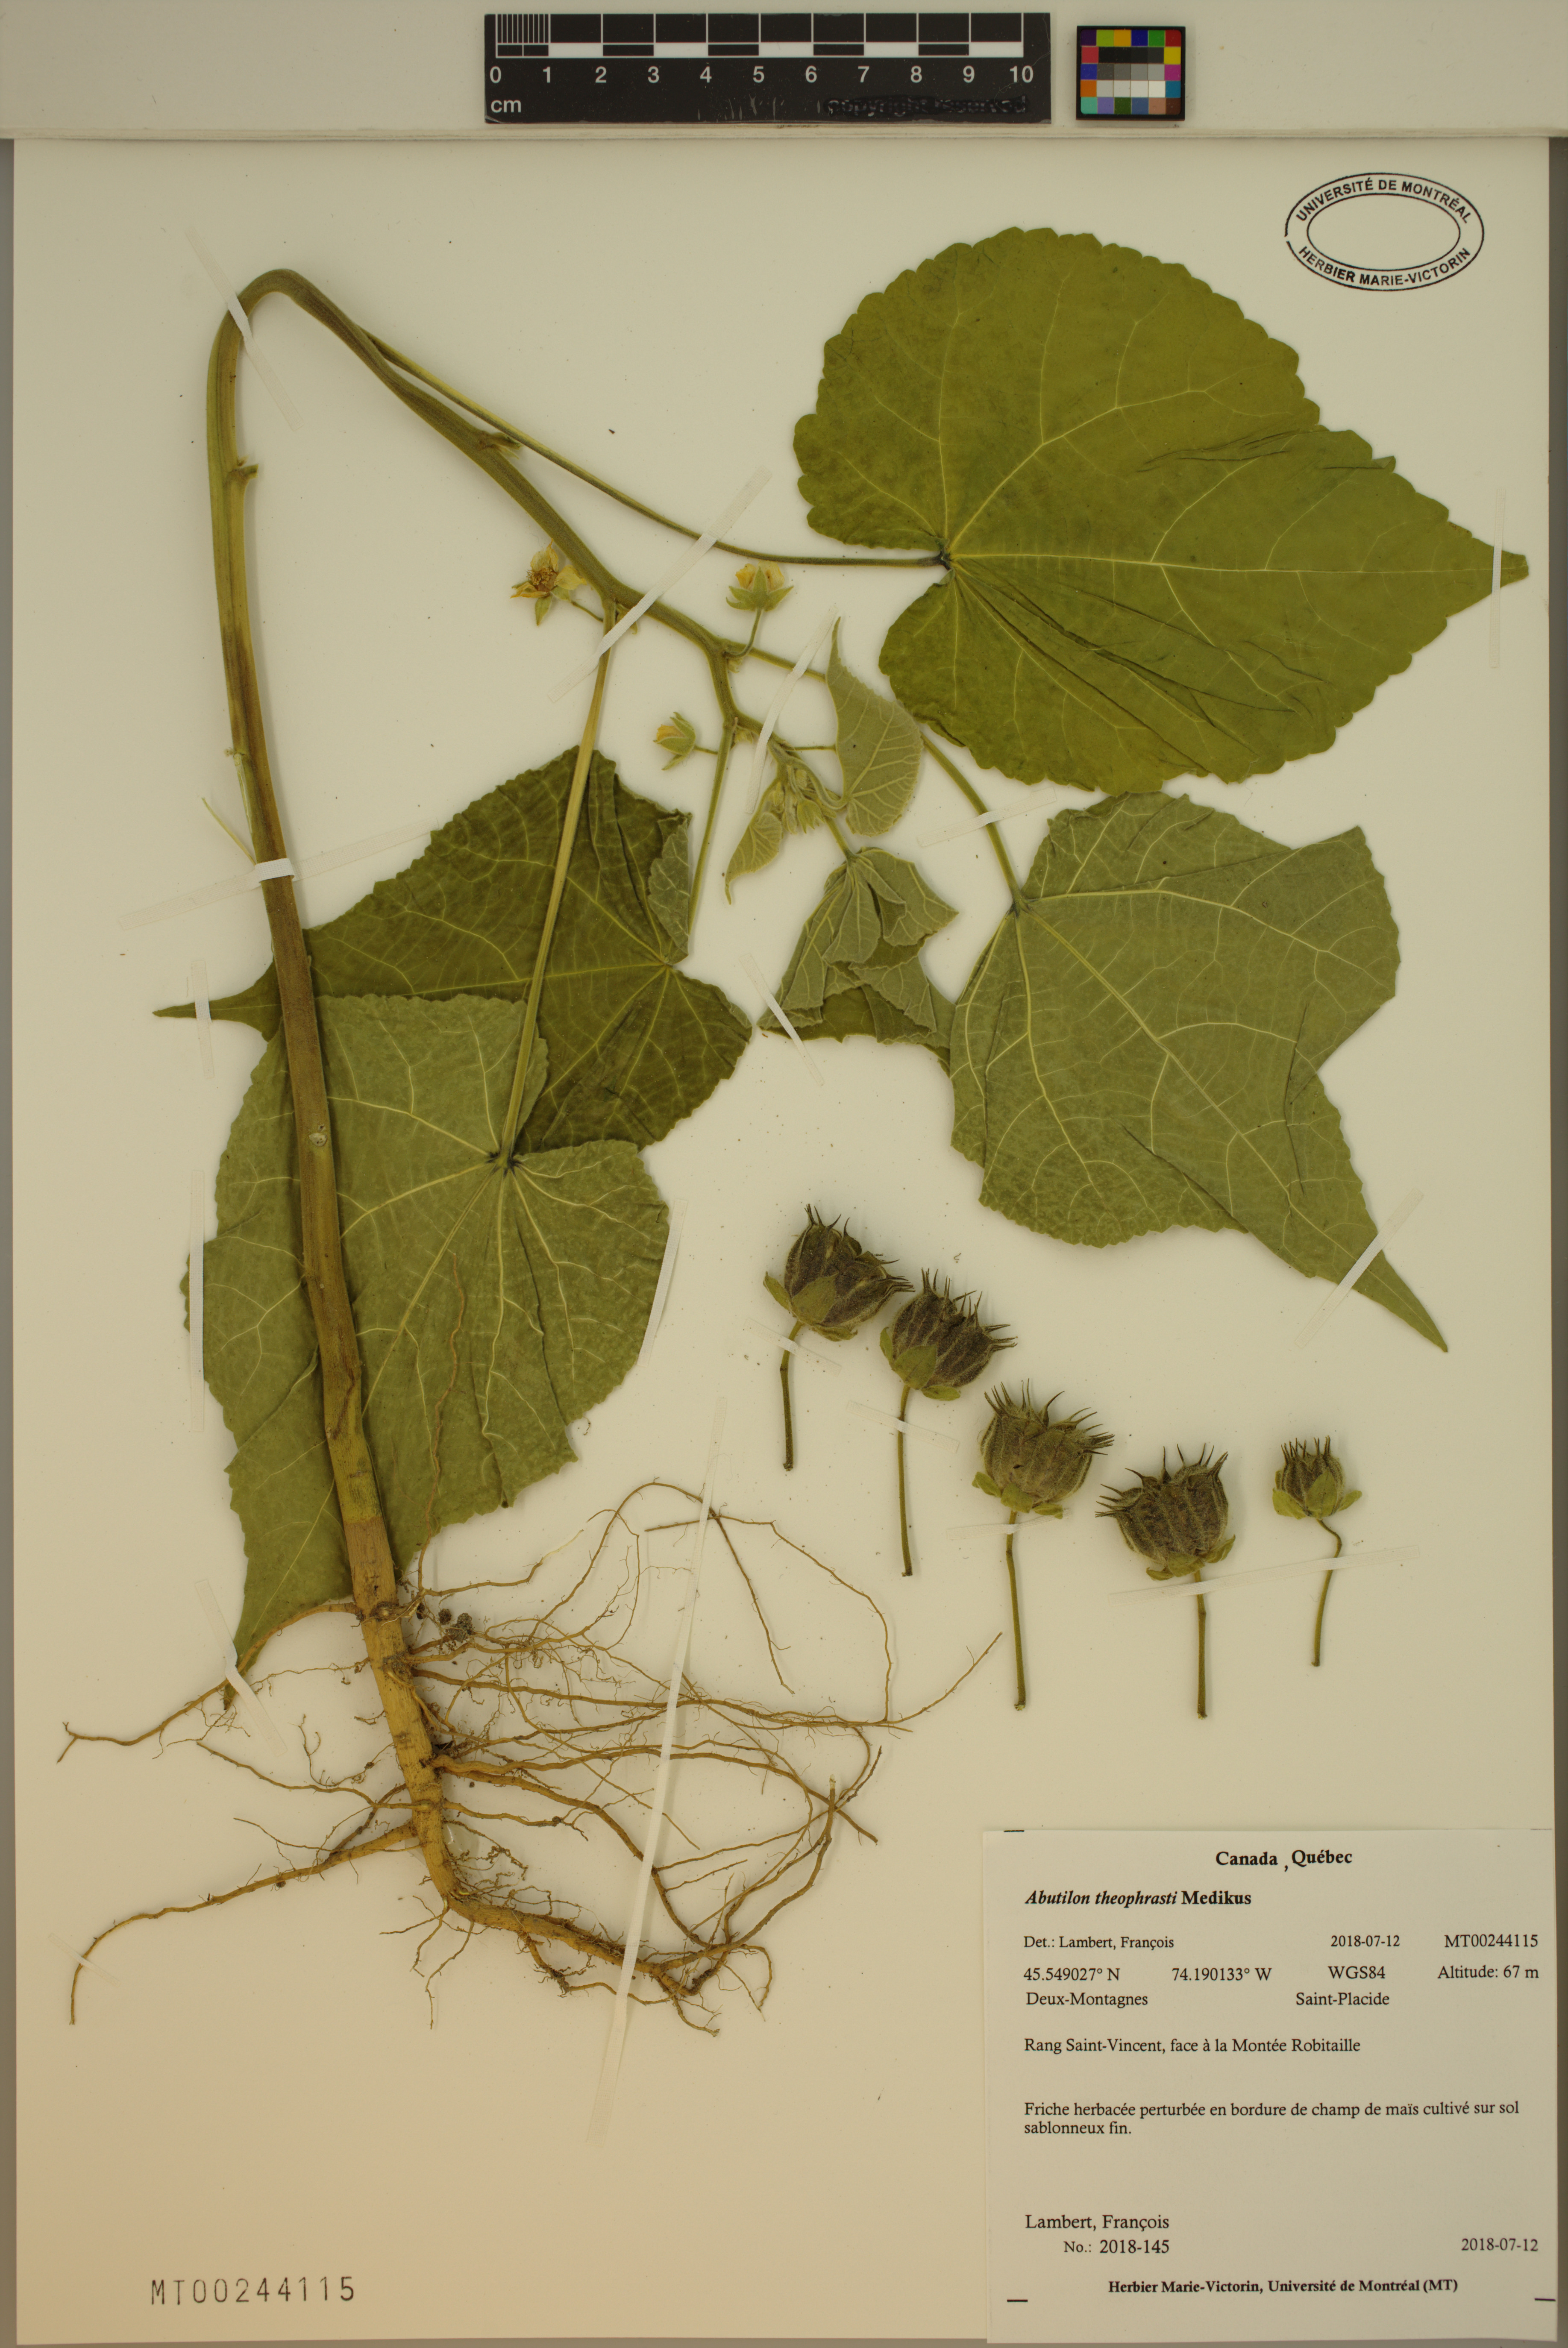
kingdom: Plantae
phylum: Tracheophyta
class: Magnoliopsida
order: Malvales
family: Malvaceae
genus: Abutilon
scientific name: Abutilon theophrasti
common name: Velvetleaf
